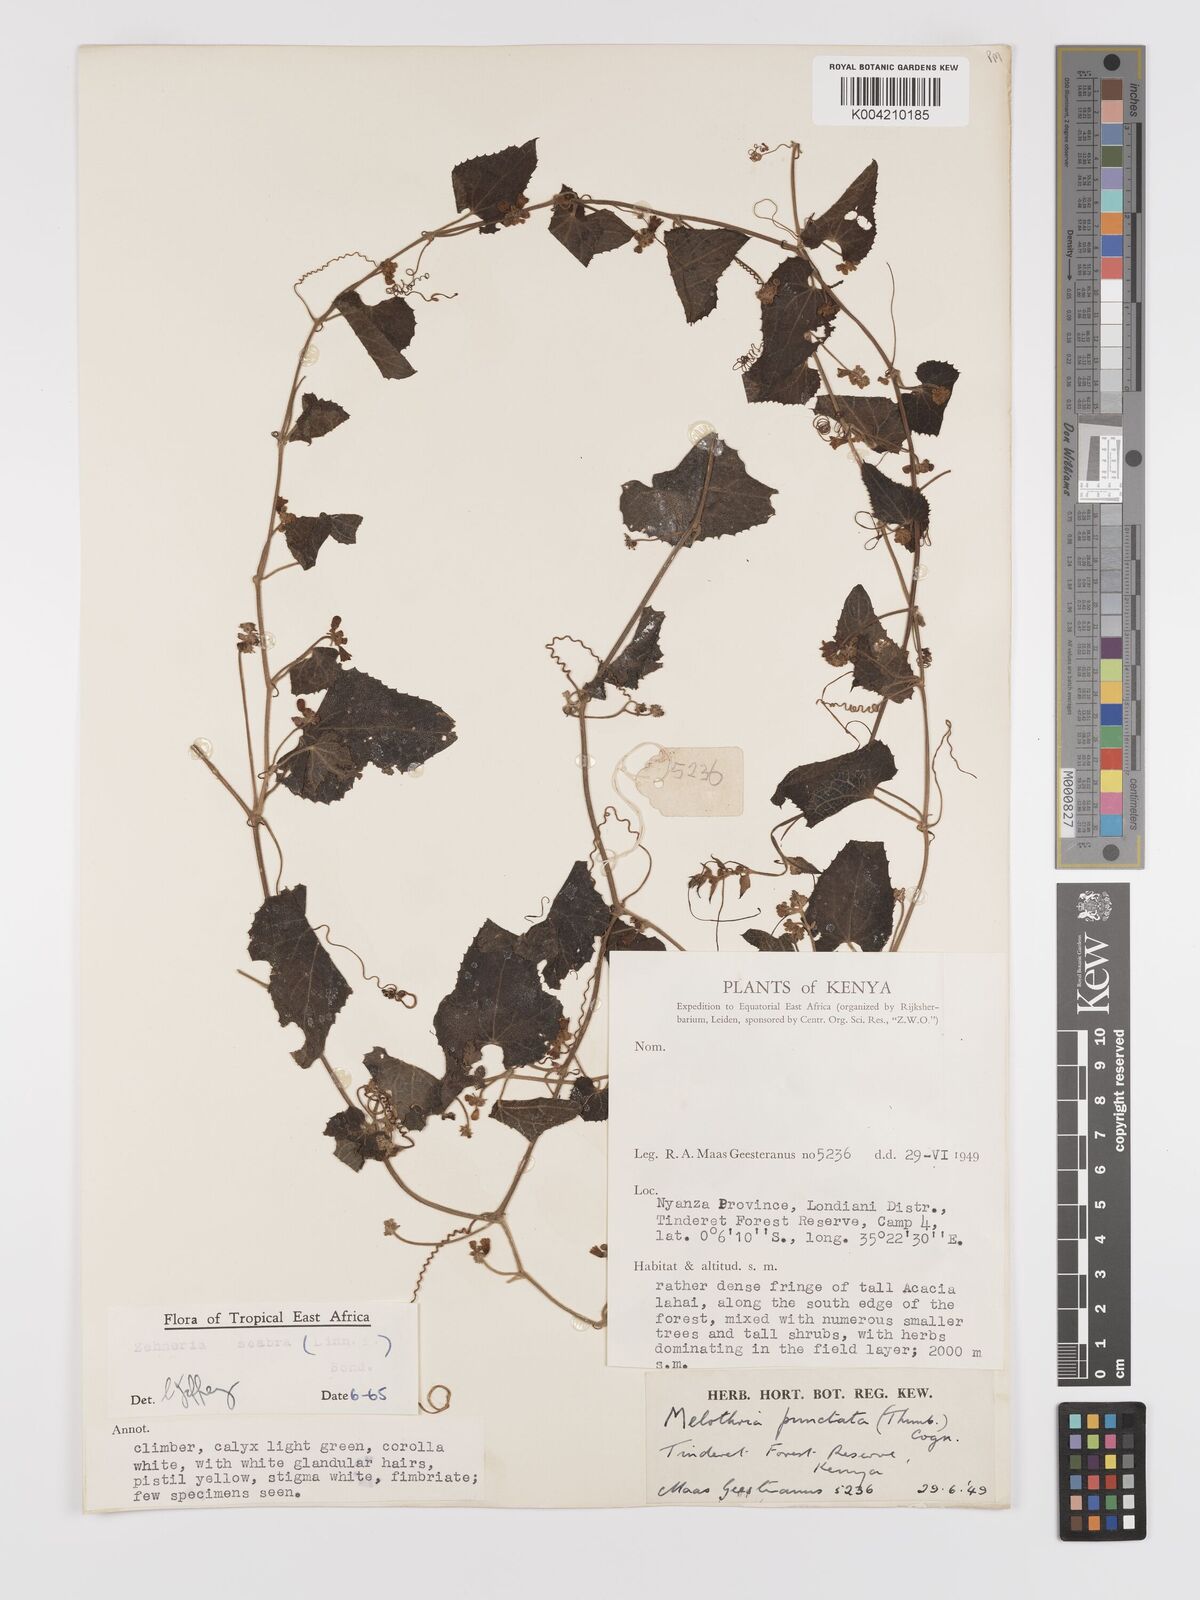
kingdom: Plantae
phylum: Tracheophyta
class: Magnoliopsida
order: Cucurbitales
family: Cucurbitaceae
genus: Zehneria
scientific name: Zehneria scabra
